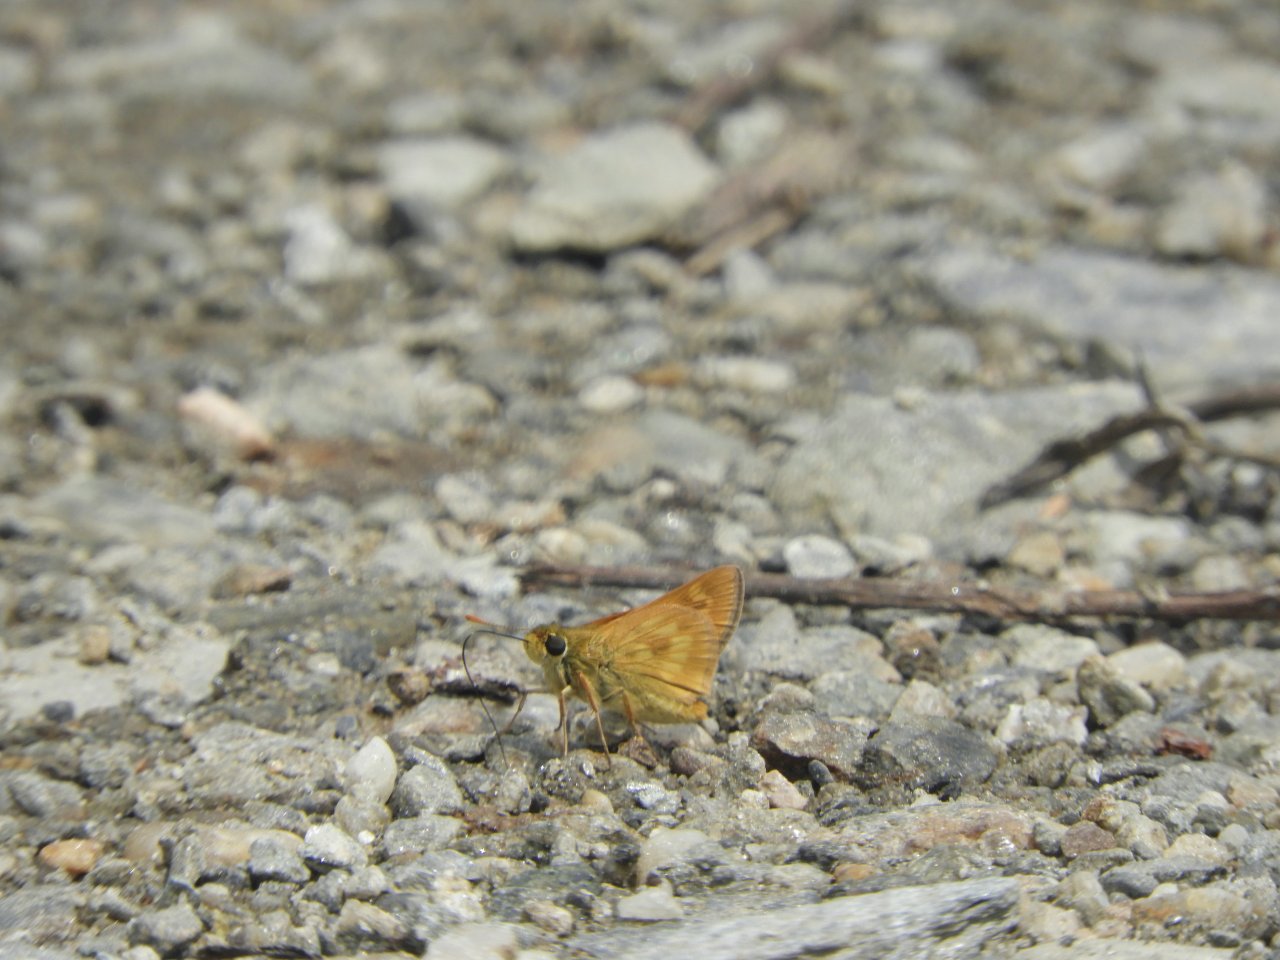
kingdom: Animalia
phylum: Arthropoda
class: Insecta
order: Lepidoptera
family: Hesperiidae
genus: Polites
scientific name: Polites
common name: Long Dash Skipper
